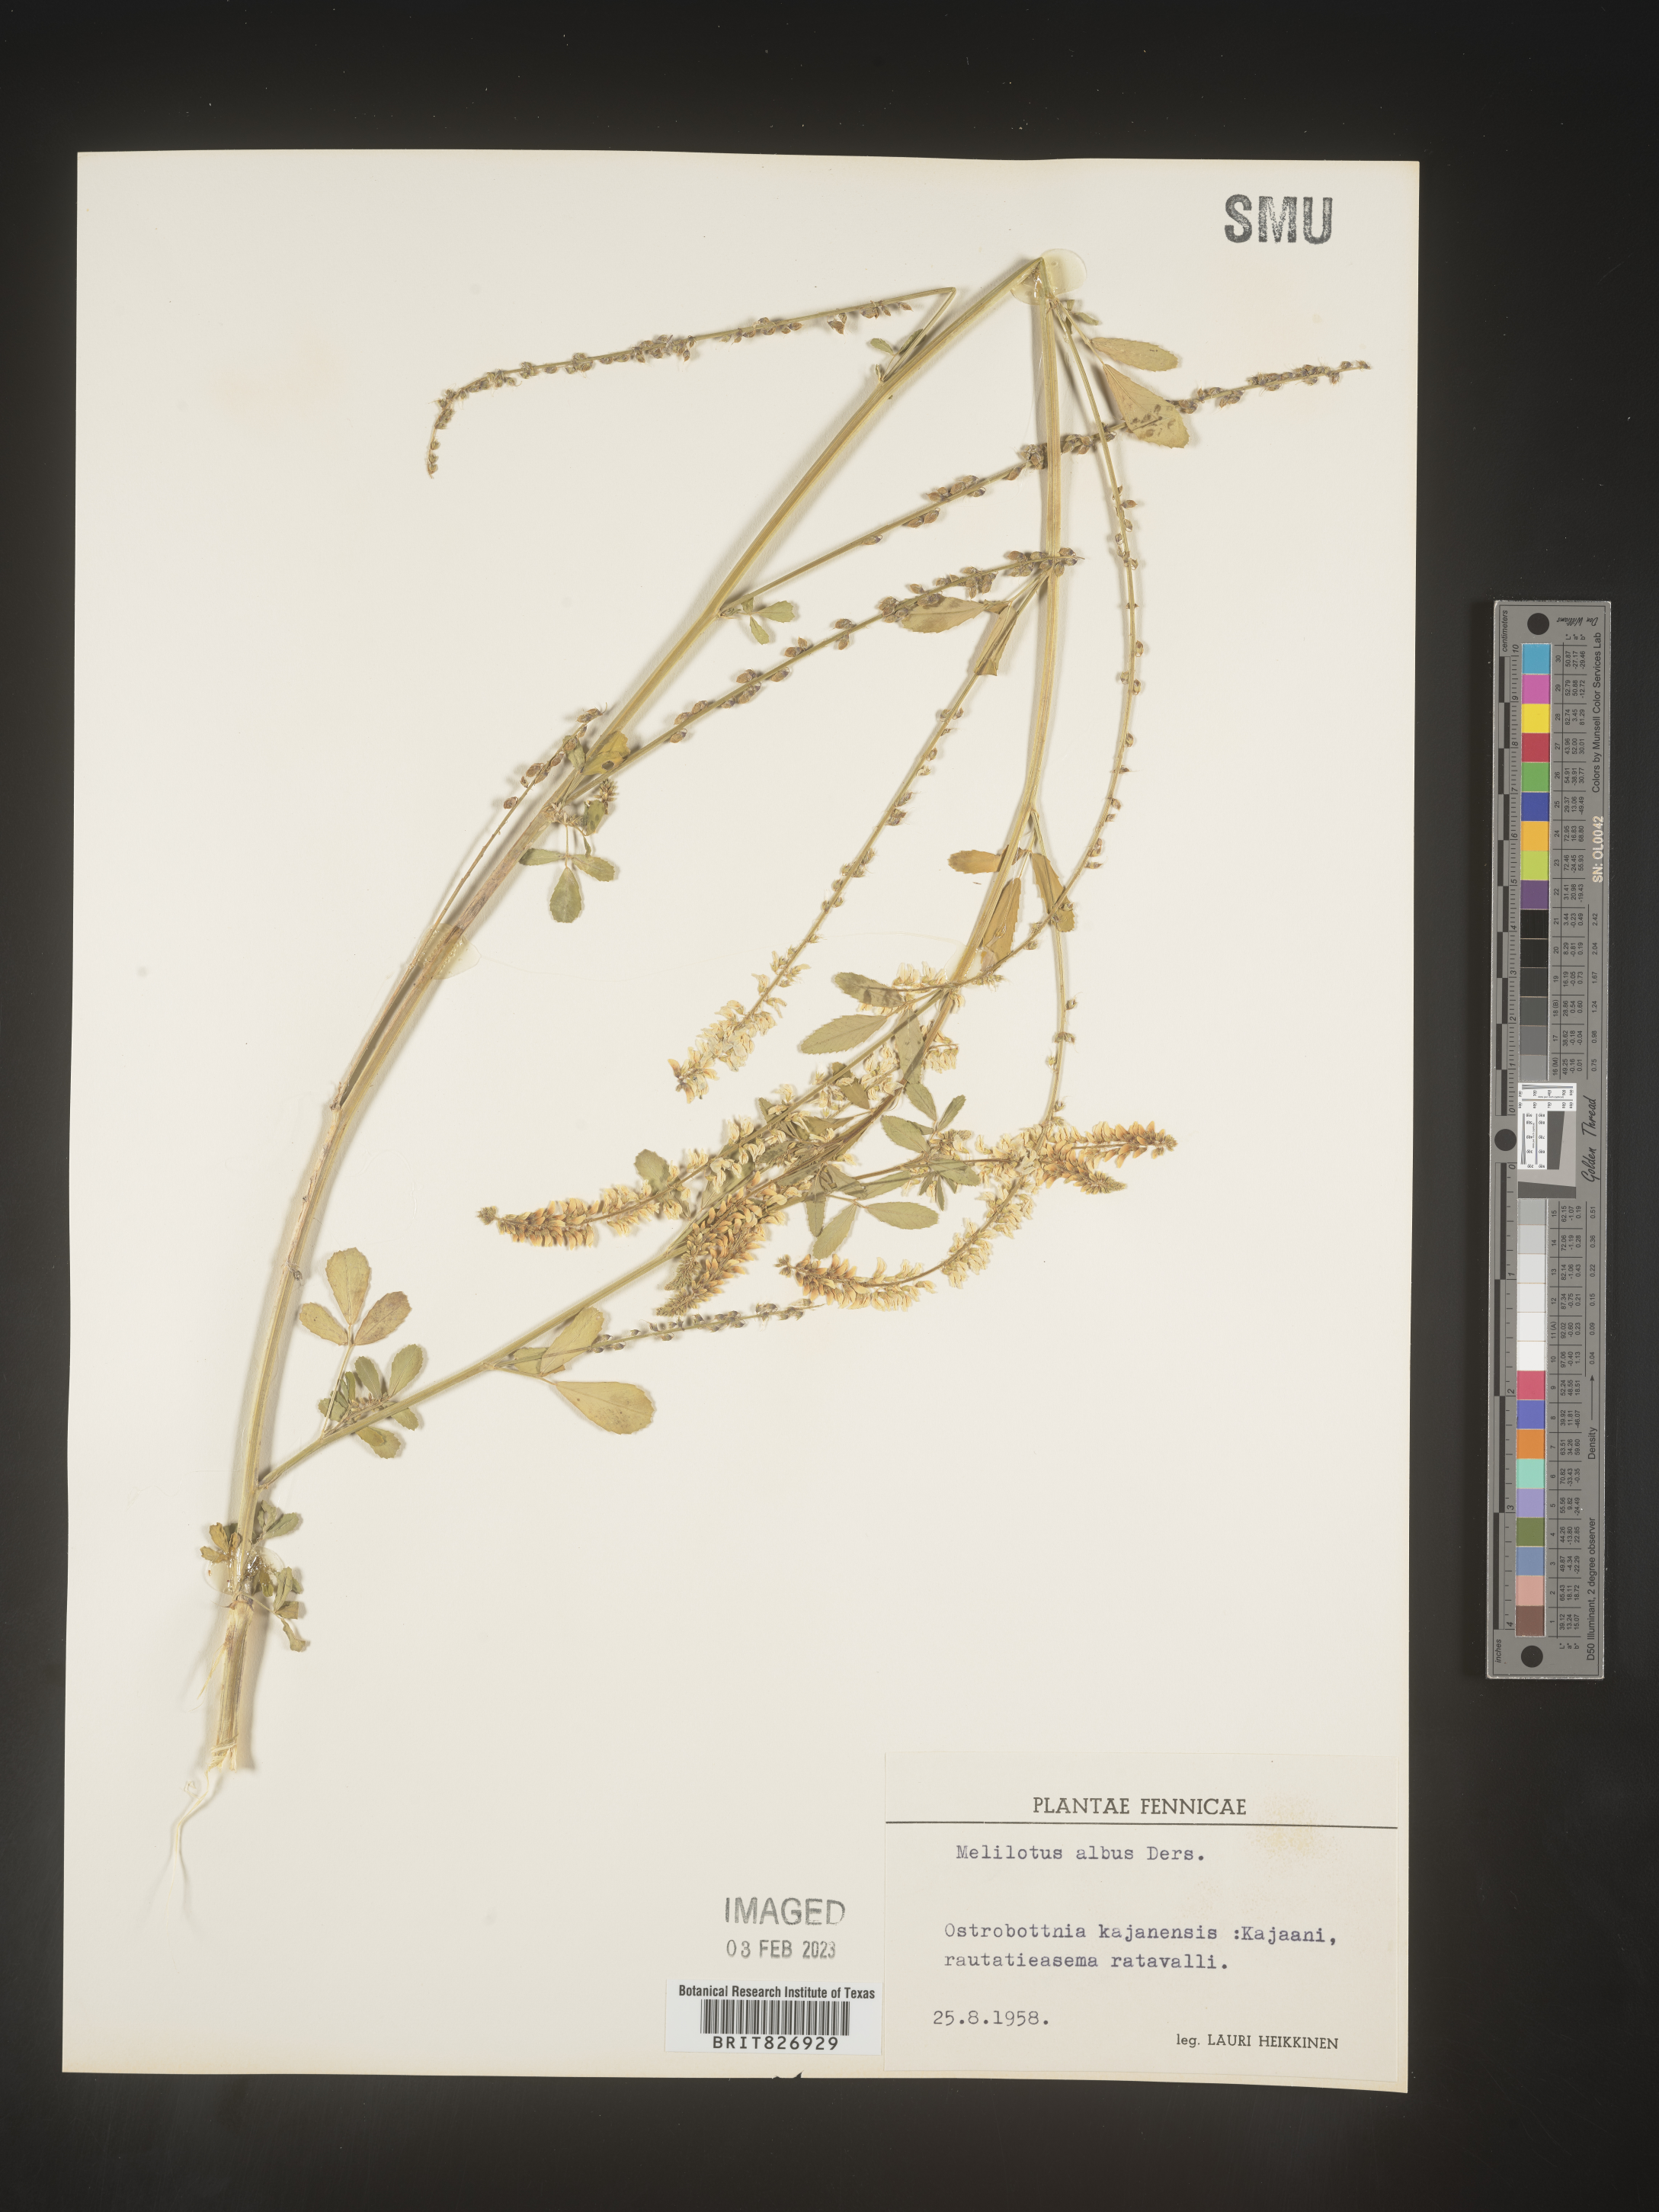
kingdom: Plantae
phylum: Tracheophyta
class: Magnoliopsida
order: Fabales
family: Fabaceae
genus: Melilotus
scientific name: Melilotus
